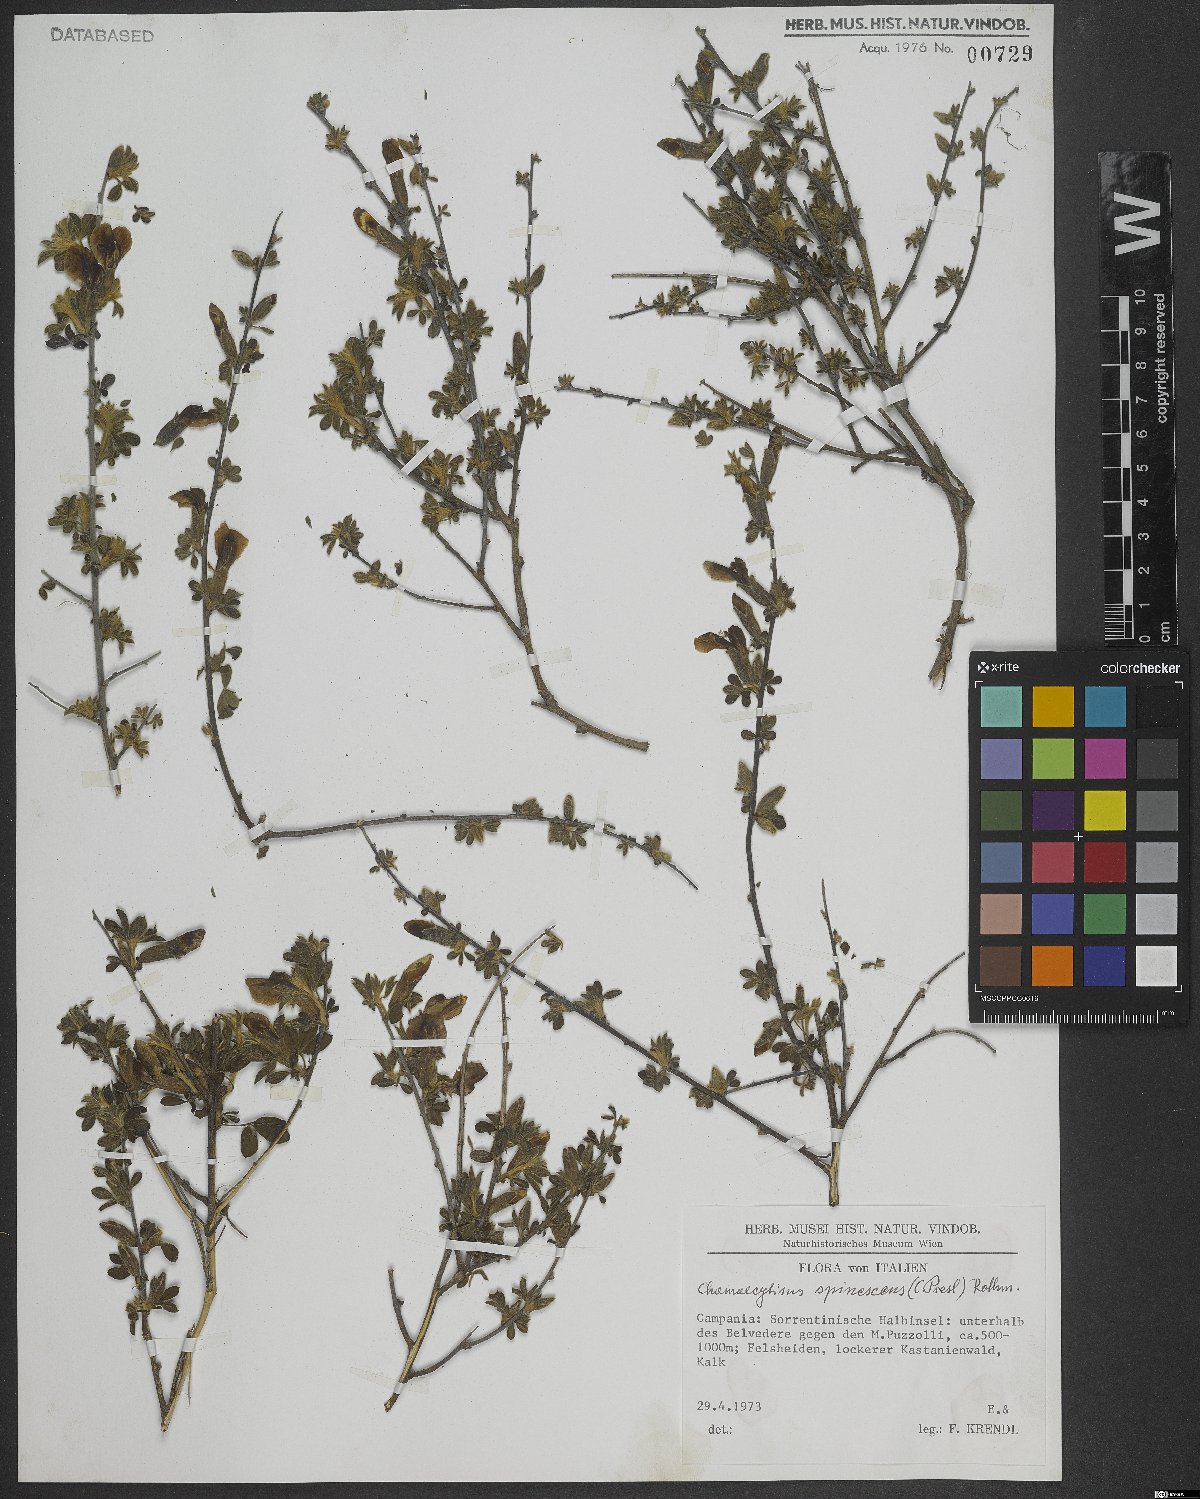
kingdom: Plantae
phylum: Tracheophyta
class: Magnoliopsida
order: Fabales
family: Fabaceae
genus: Chamaecytisus
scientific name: Chamaecytisus spinescens
